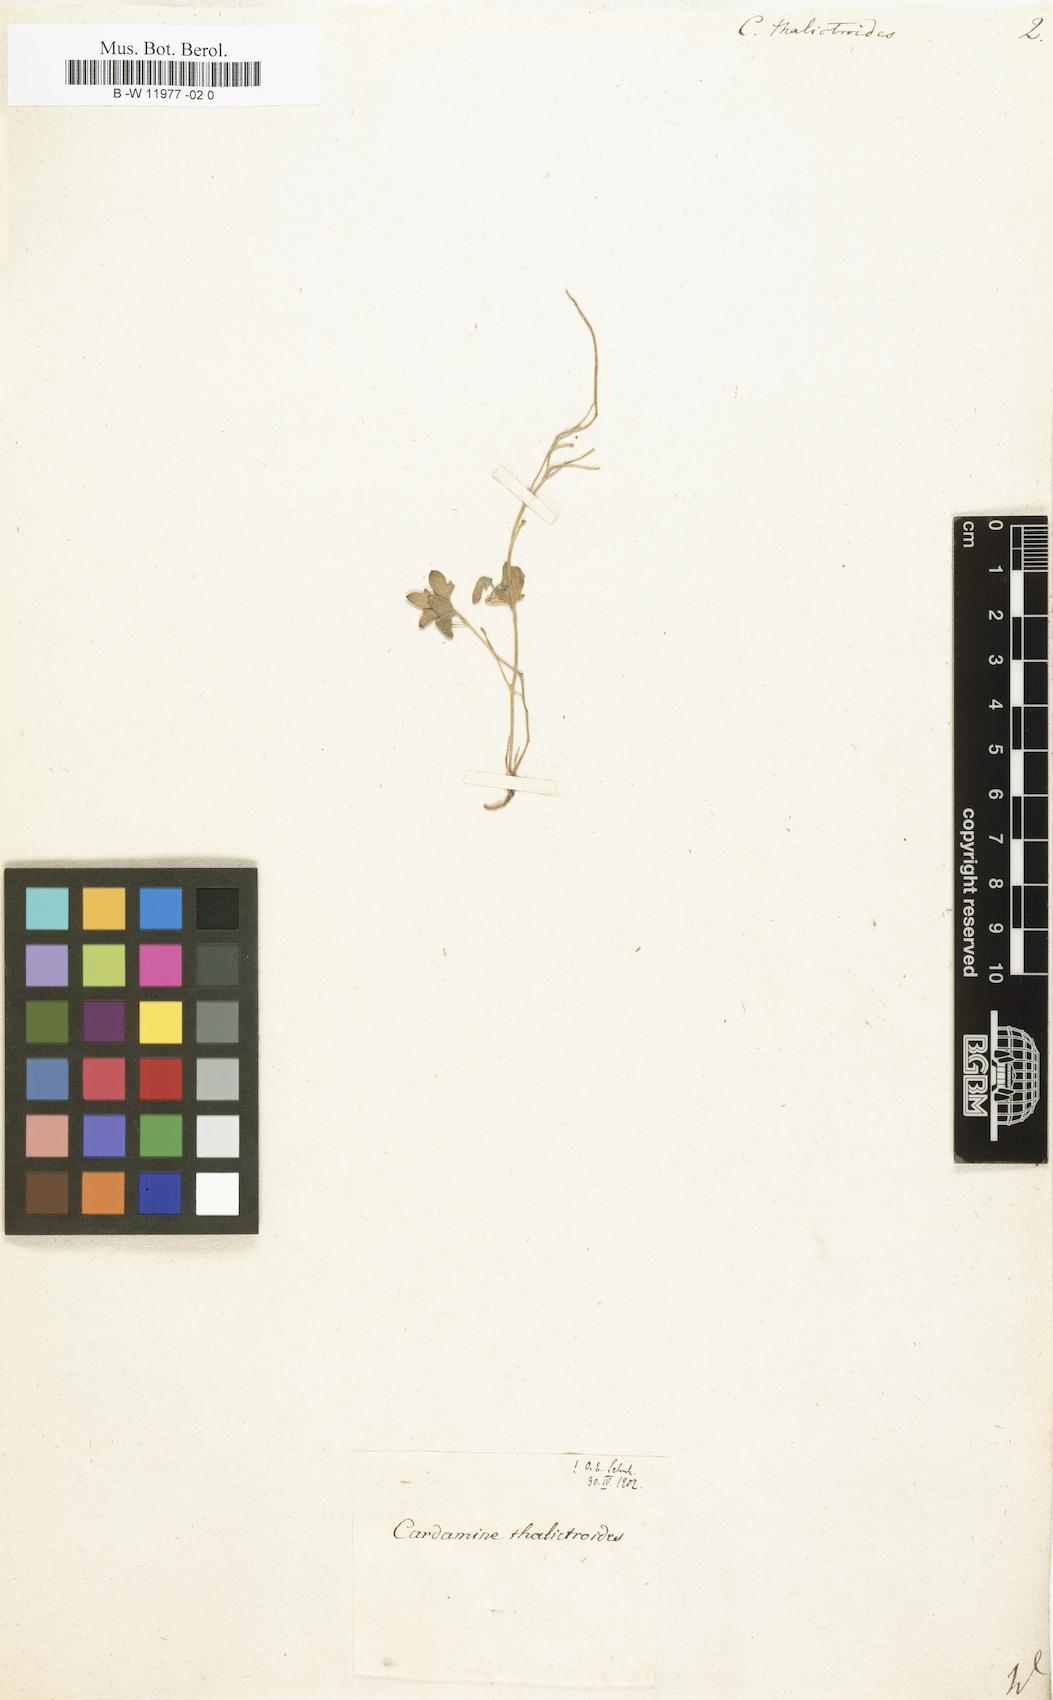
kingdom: Plantae
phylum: Tracheophyta
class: Magnoliopsida
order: Brassicales
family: Brassicaceae
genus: Cardamine
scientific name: Cardamine maritima
